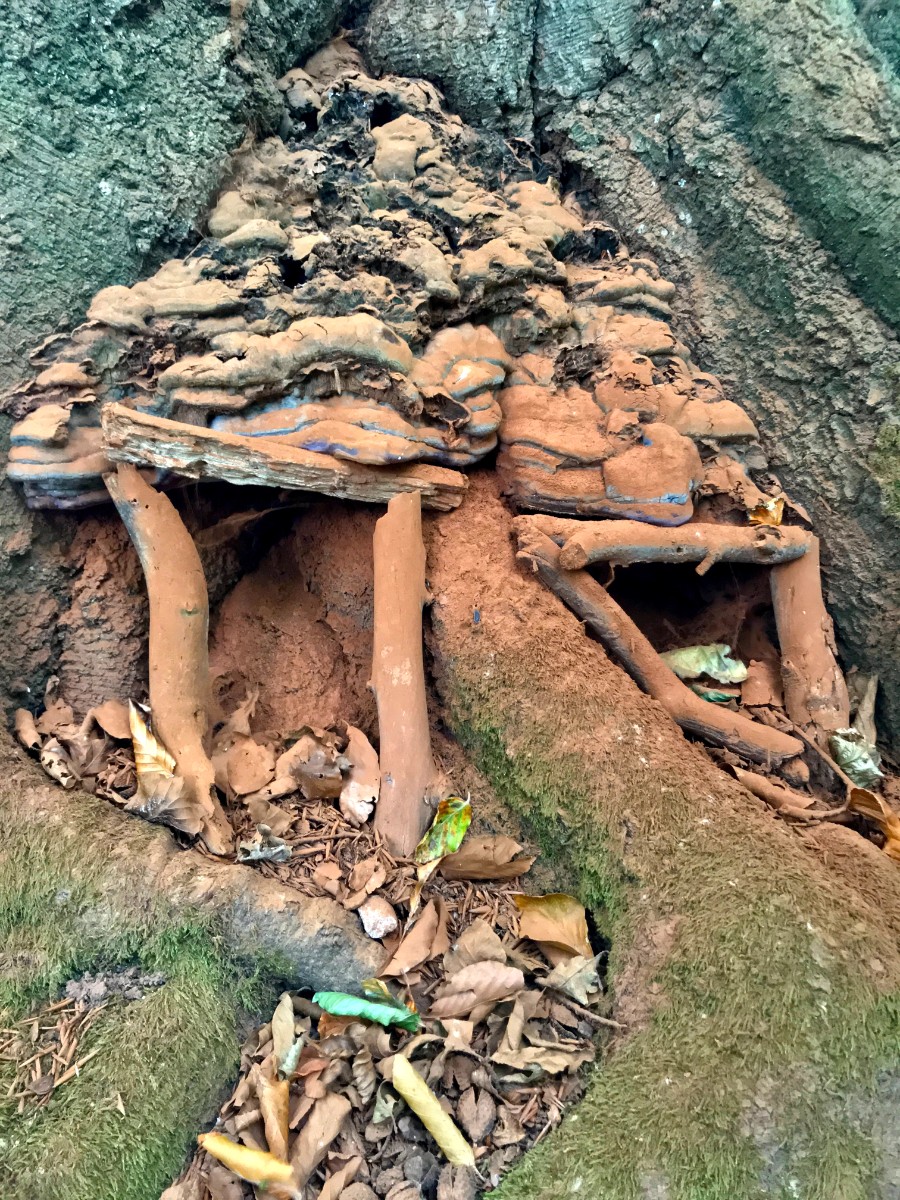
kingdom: Fungi
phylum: Basidiomycota
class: Agaricomycetes
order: Polyporales
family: Polyporaceae
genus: Ganoderma
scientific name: Ganoderma pfeifferi
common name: kobberrød lakporesvamp
